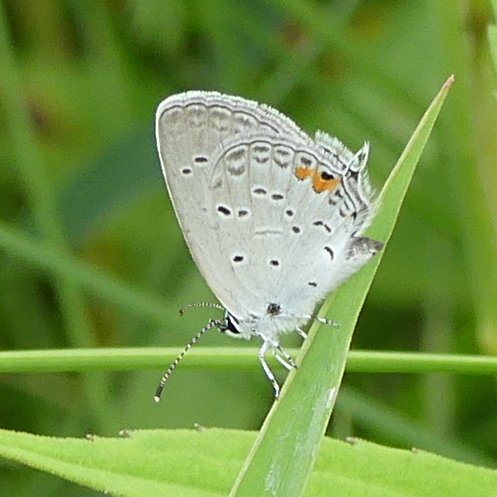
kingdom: Animalia
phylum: Arthropoda
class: Insecta
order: Lepidoptera
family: Lycaenidae
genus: Elkalyce
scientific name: Elkalyce comyntas
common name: Eastern Tailed-Blue
